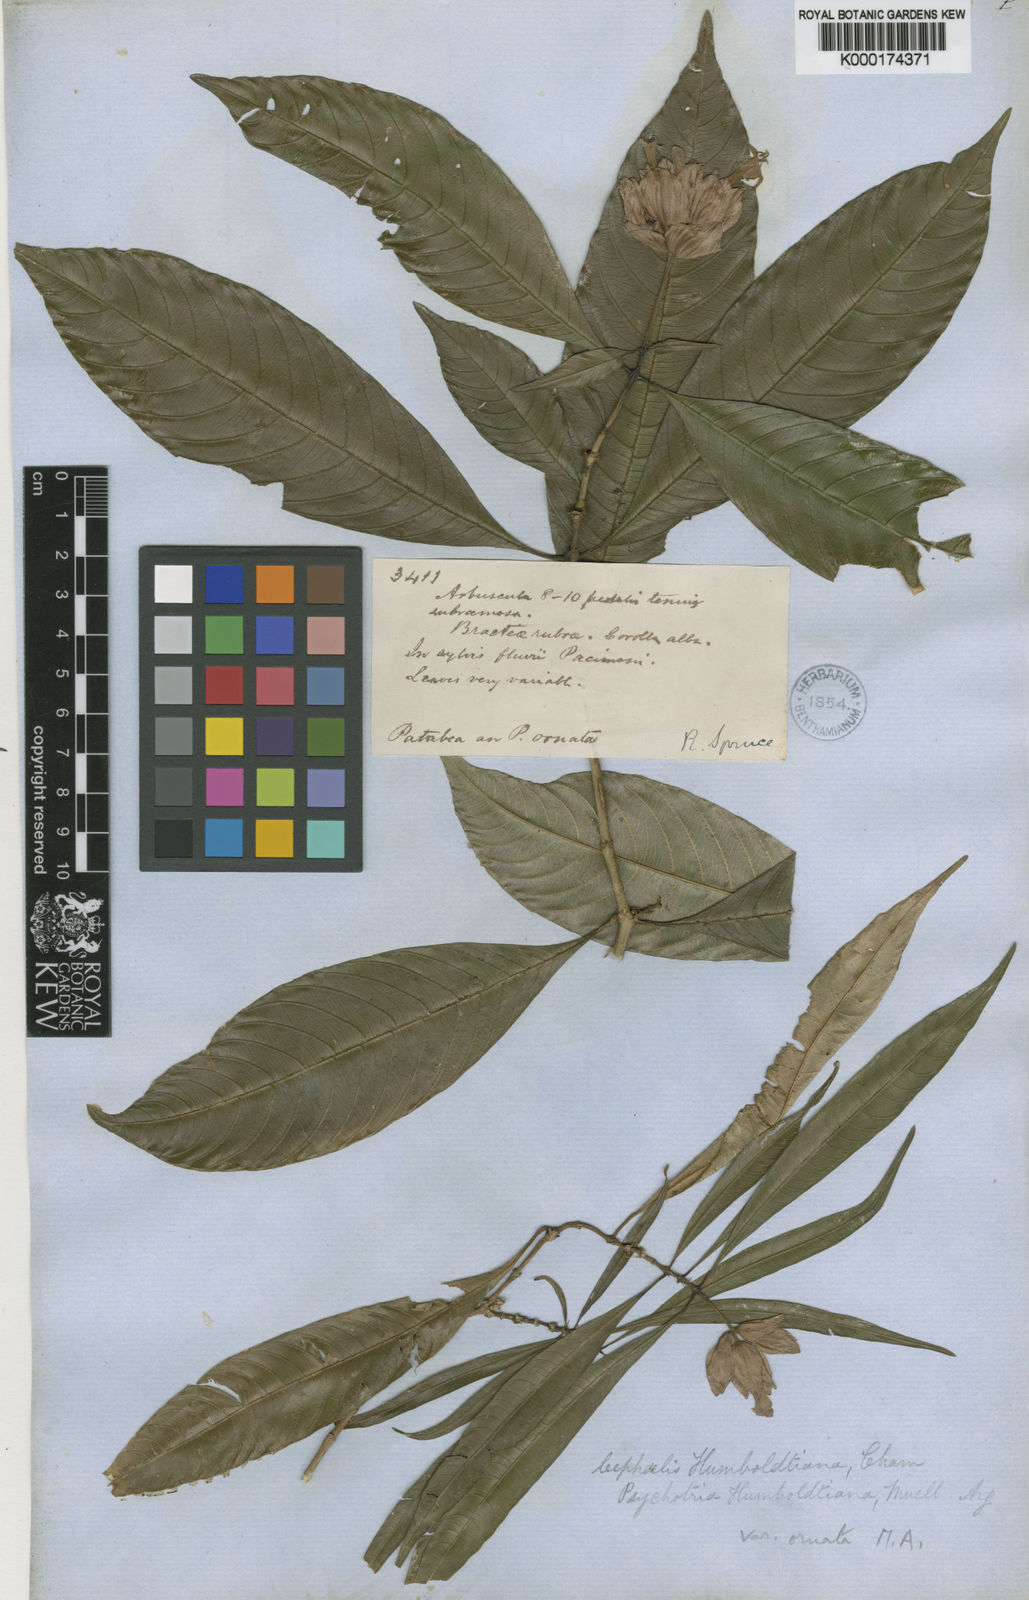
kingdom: Plantae
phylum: Tracheophyta
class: Magnoliopsida
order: Gentianales
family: Rubiaceae
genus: Psychotria
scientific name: Psychotria
